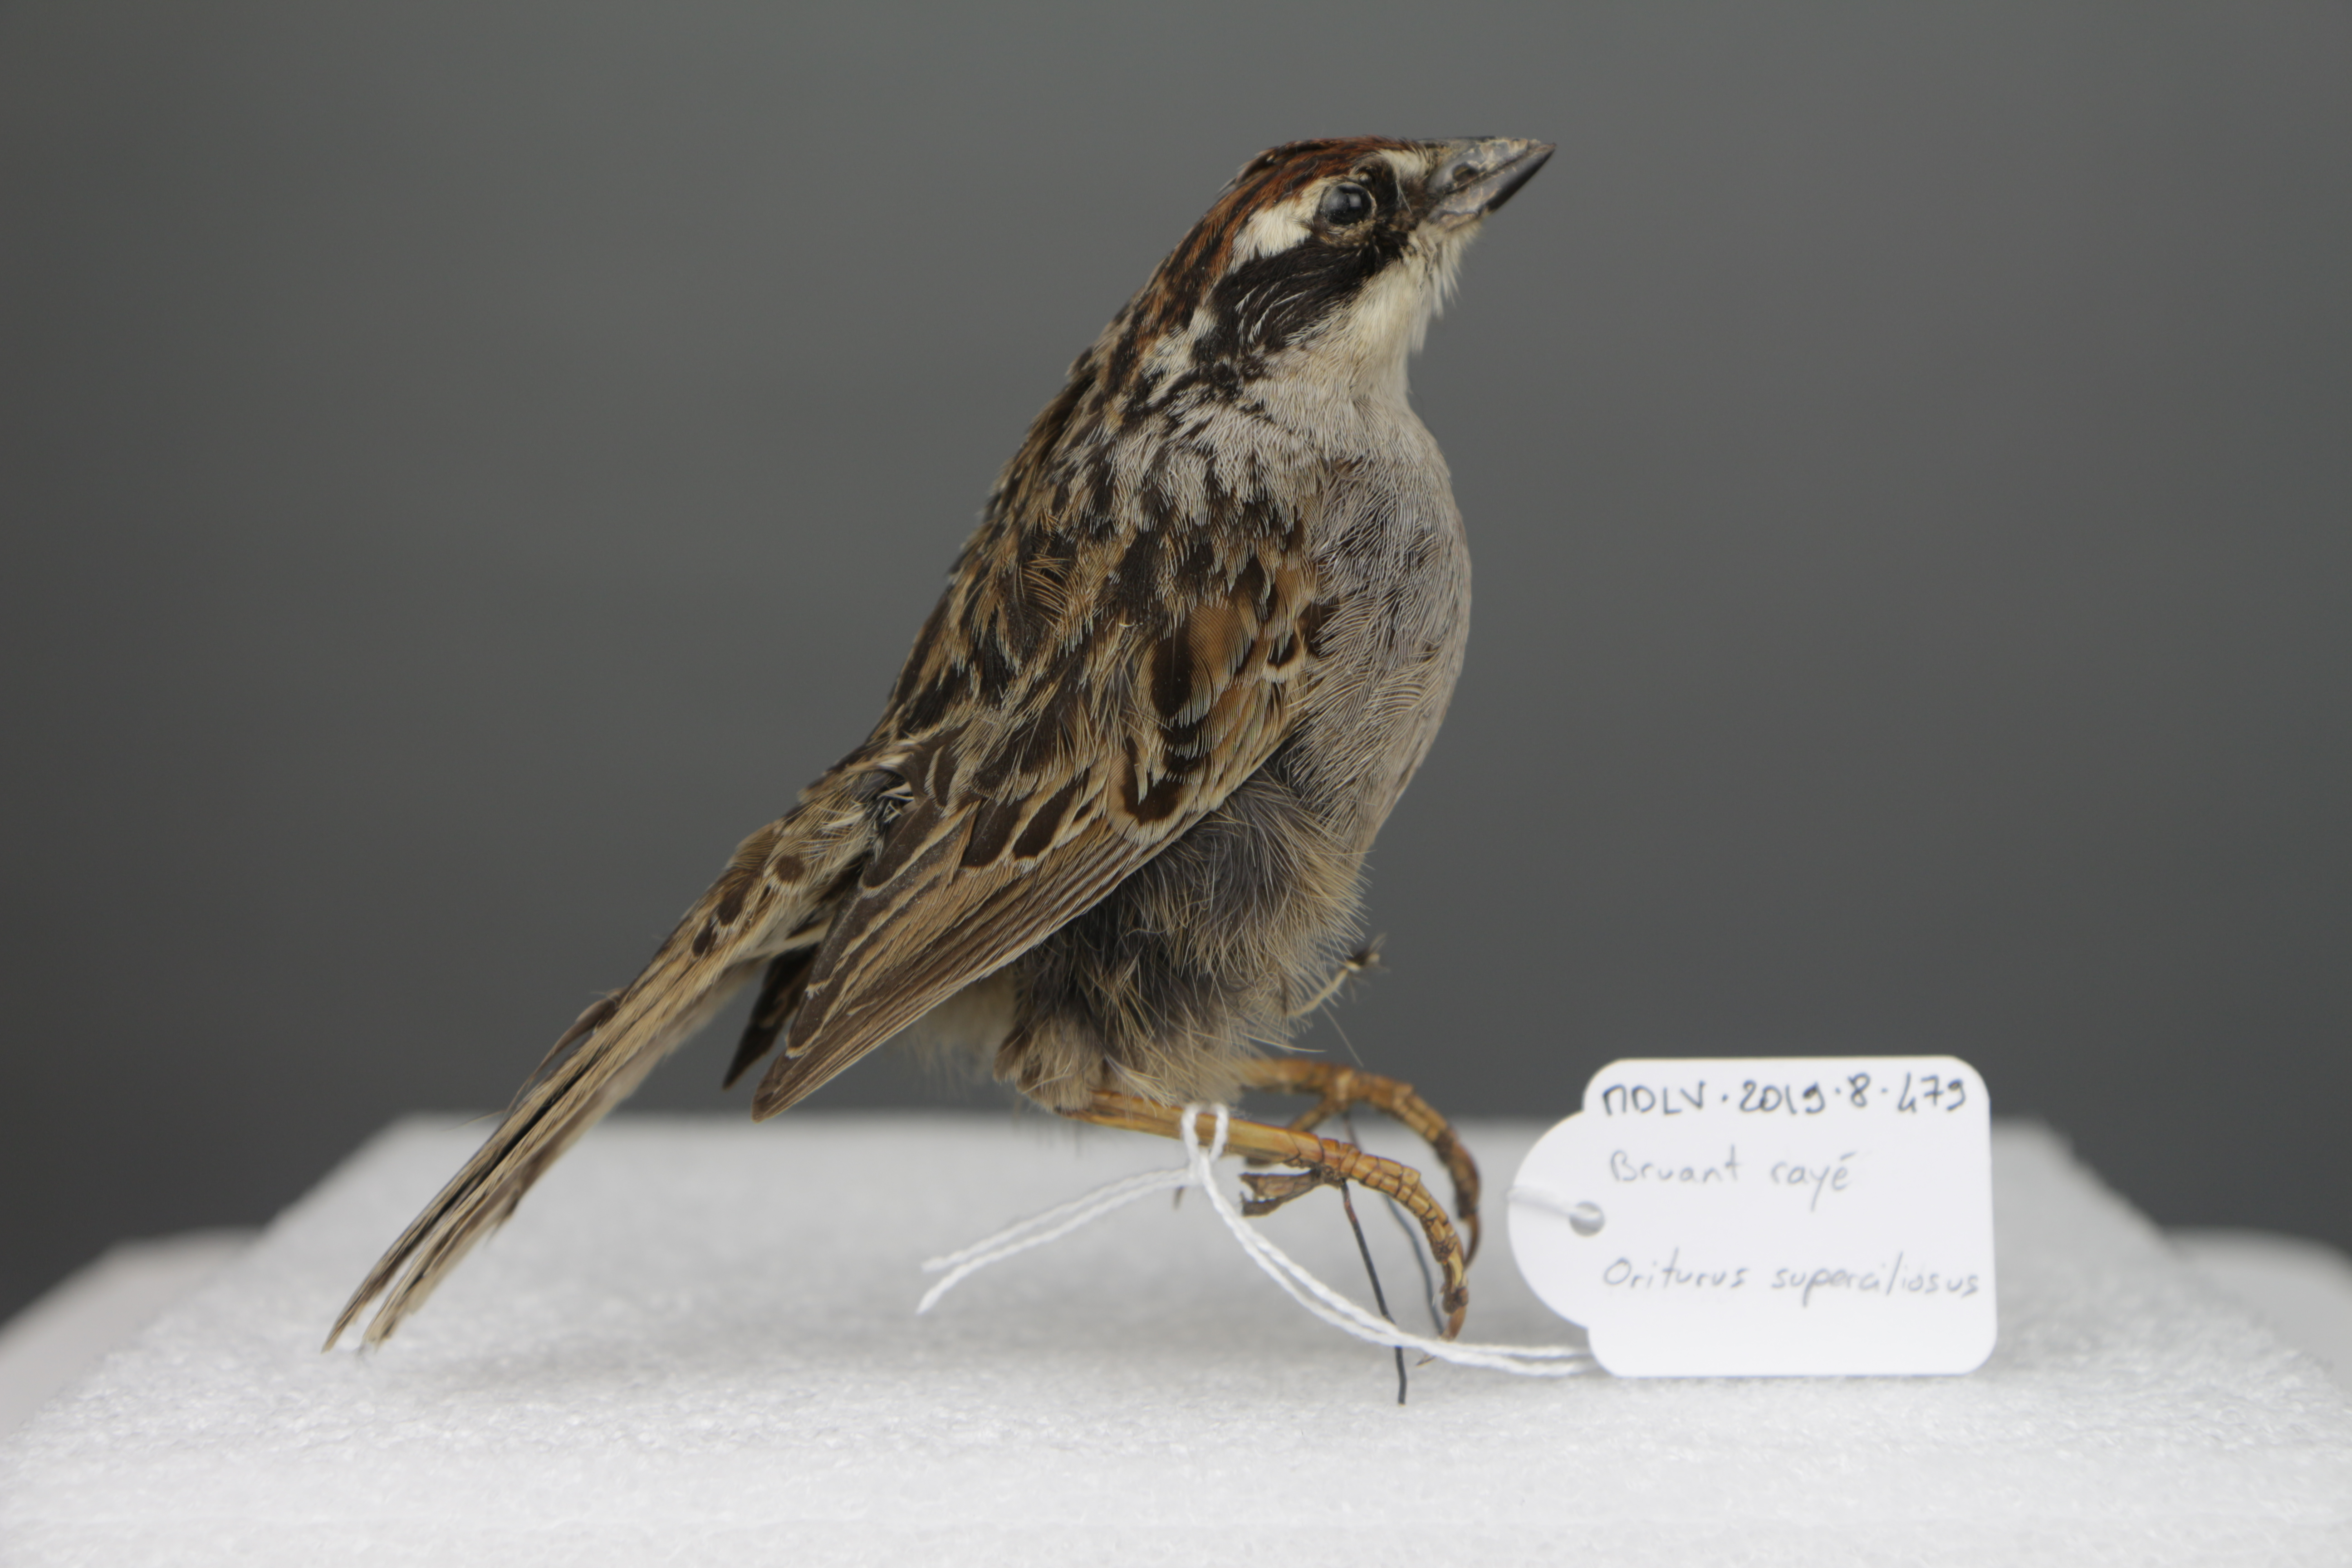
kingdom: Animalia
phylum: Chordata
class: Aves
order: Passeriformes
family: Passerellidae
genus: Oriturus
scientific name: Oriturus superciliosus
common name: Striped sparrow
